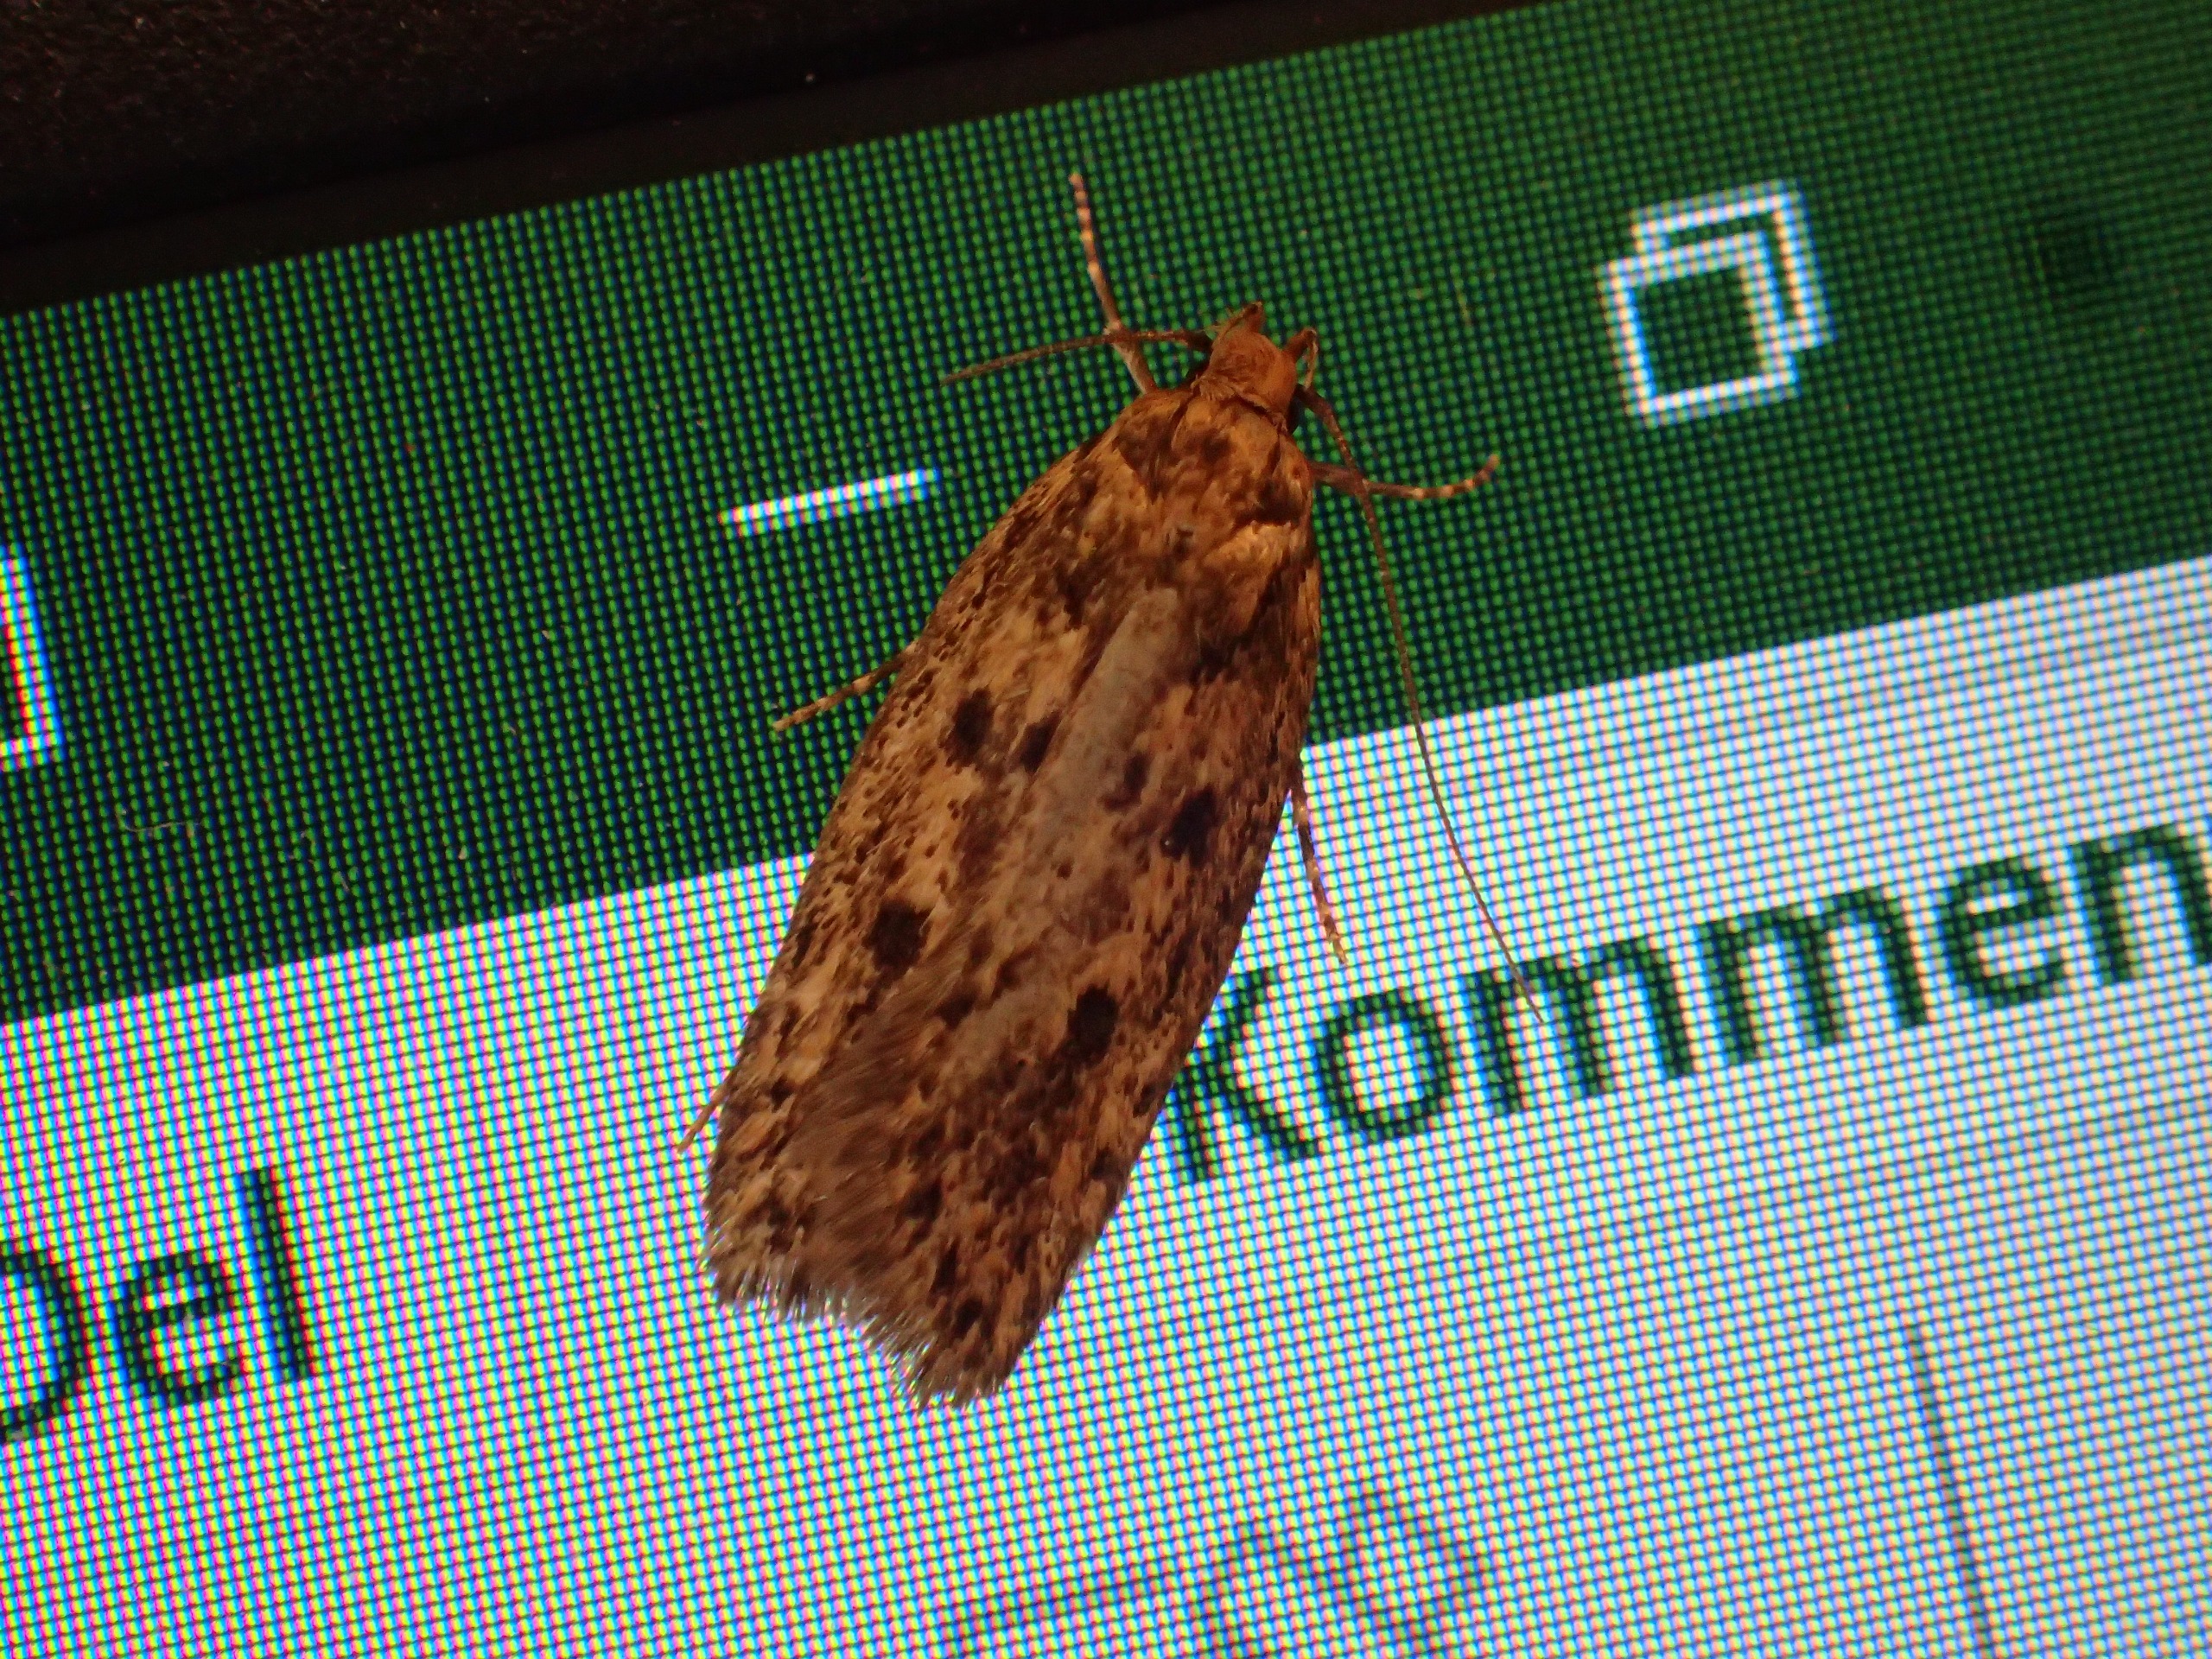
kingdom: Animalia
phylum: Arthropoda
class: Insecta
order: Lepidoptera
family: Oecophoridae
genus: Hofmannophila
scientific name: Hofmannophila pseudospretella
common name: Frømøl
